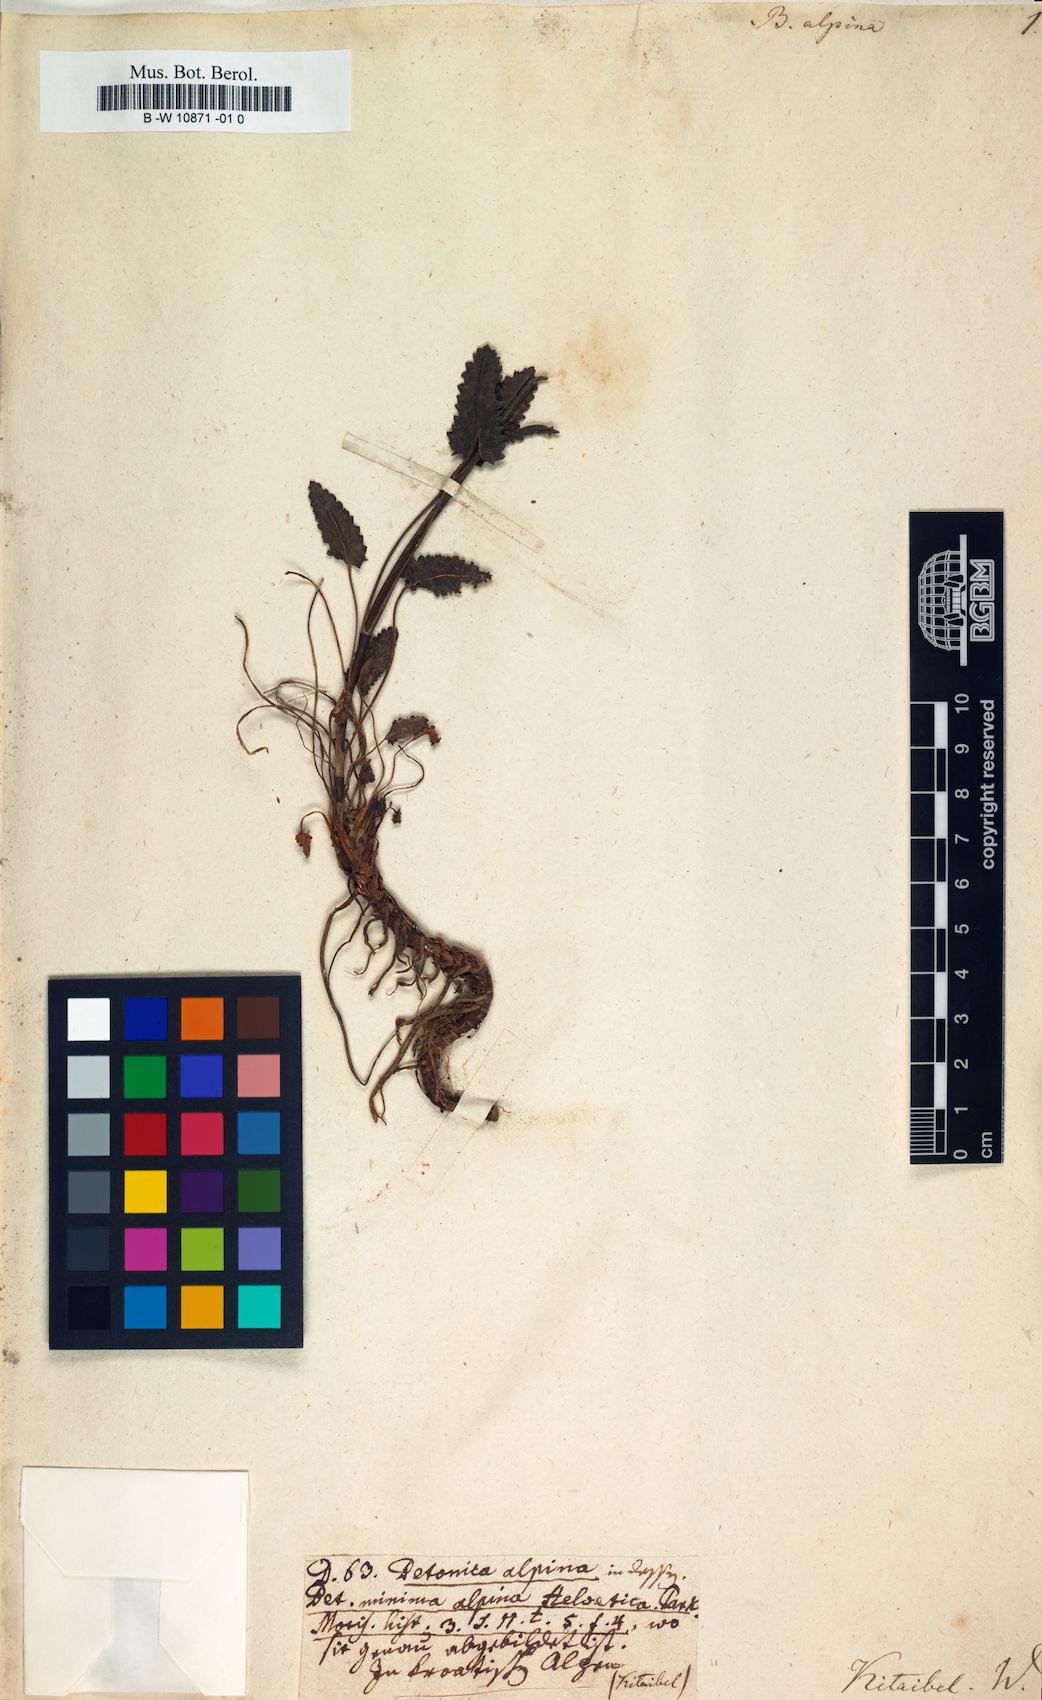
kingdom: Plantae
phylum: Tracheophyta
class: Magnoliopsida
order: Lamiales
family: Lamiaceae
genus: Betonica
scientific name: Betonica alopecuros
